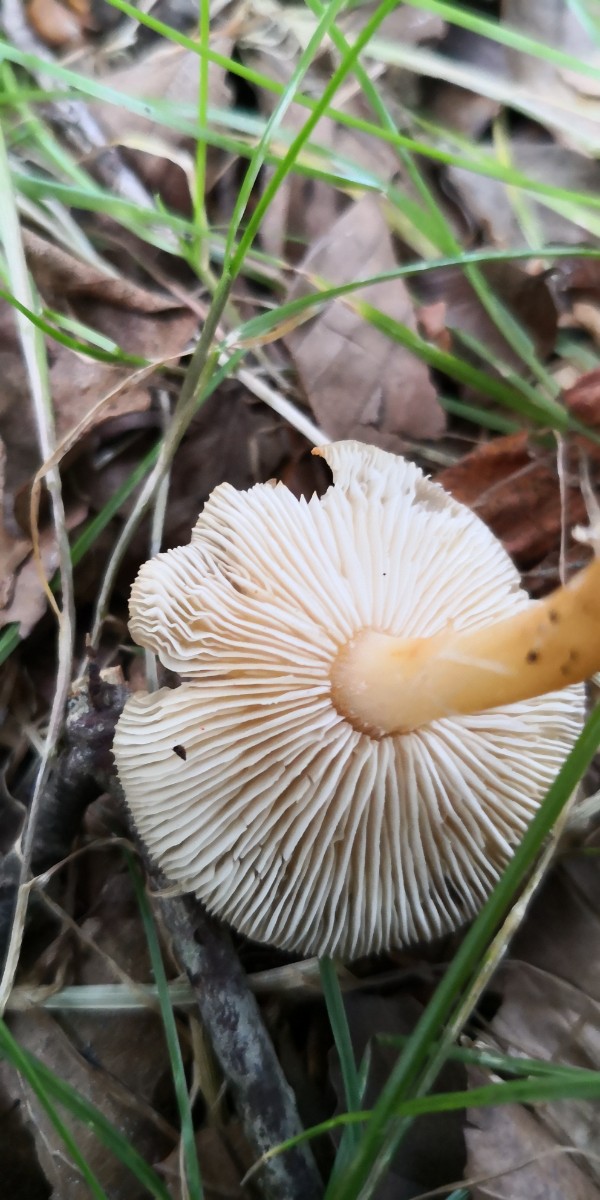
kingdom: Fungi
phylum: Basidiomycota
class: Agaricomycetes
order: Agaricales
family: Omphalotaceae
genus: Gymnopus
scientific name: Gymnopus dryophilus
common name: løv-fladhat
